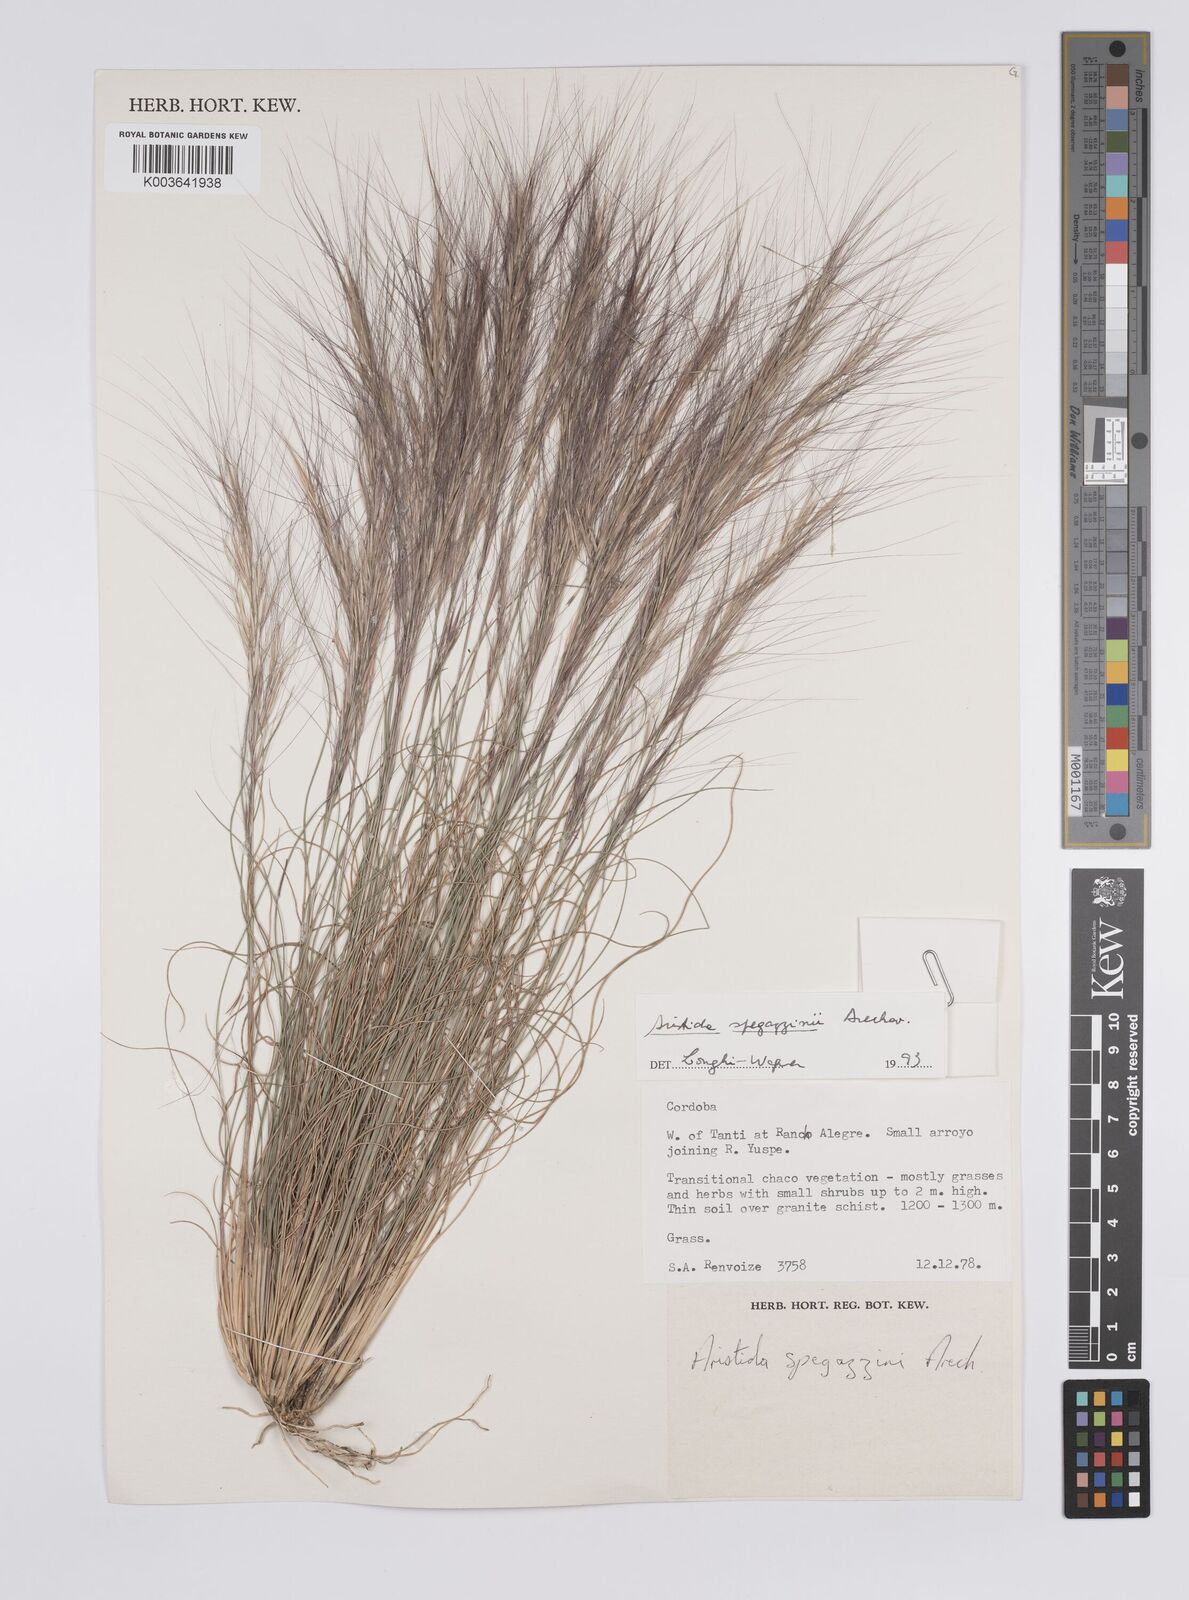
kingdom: Plantae
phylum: Tracheophyta
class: Liliopsida
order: Poales
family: Poaceae
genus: Aristida
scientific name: Aristida spegazzinii
